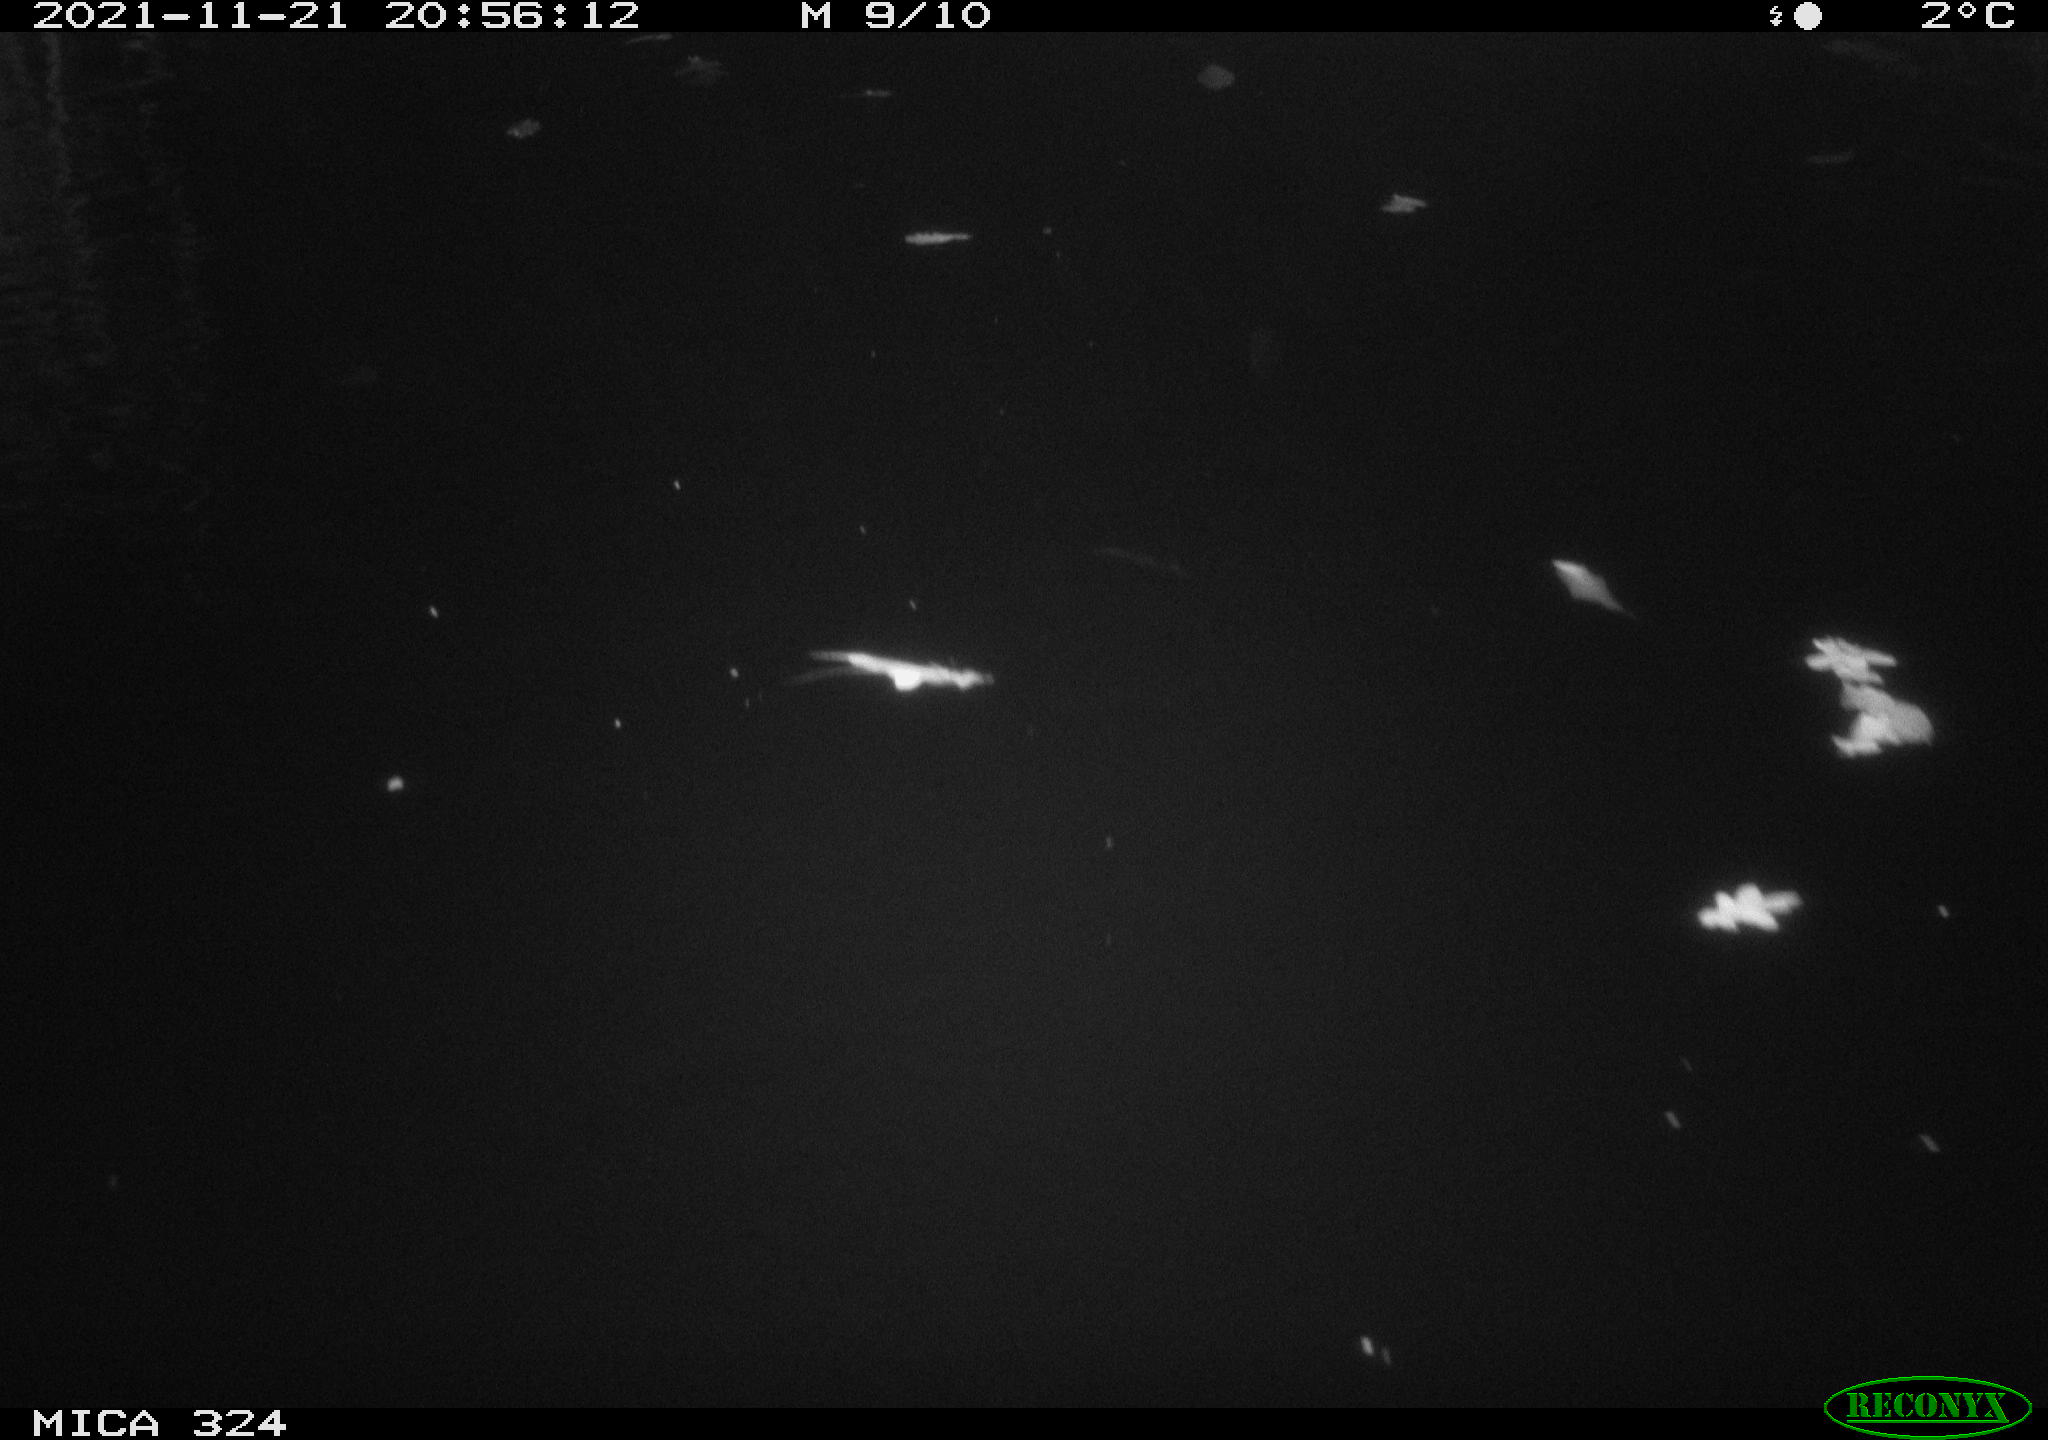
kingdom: Animalia
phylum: Chordata
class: Mammalia
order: Rodentia
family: Cricetidae
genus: Ondatra
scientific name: Ondatra zibethicus
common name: Muskrat
